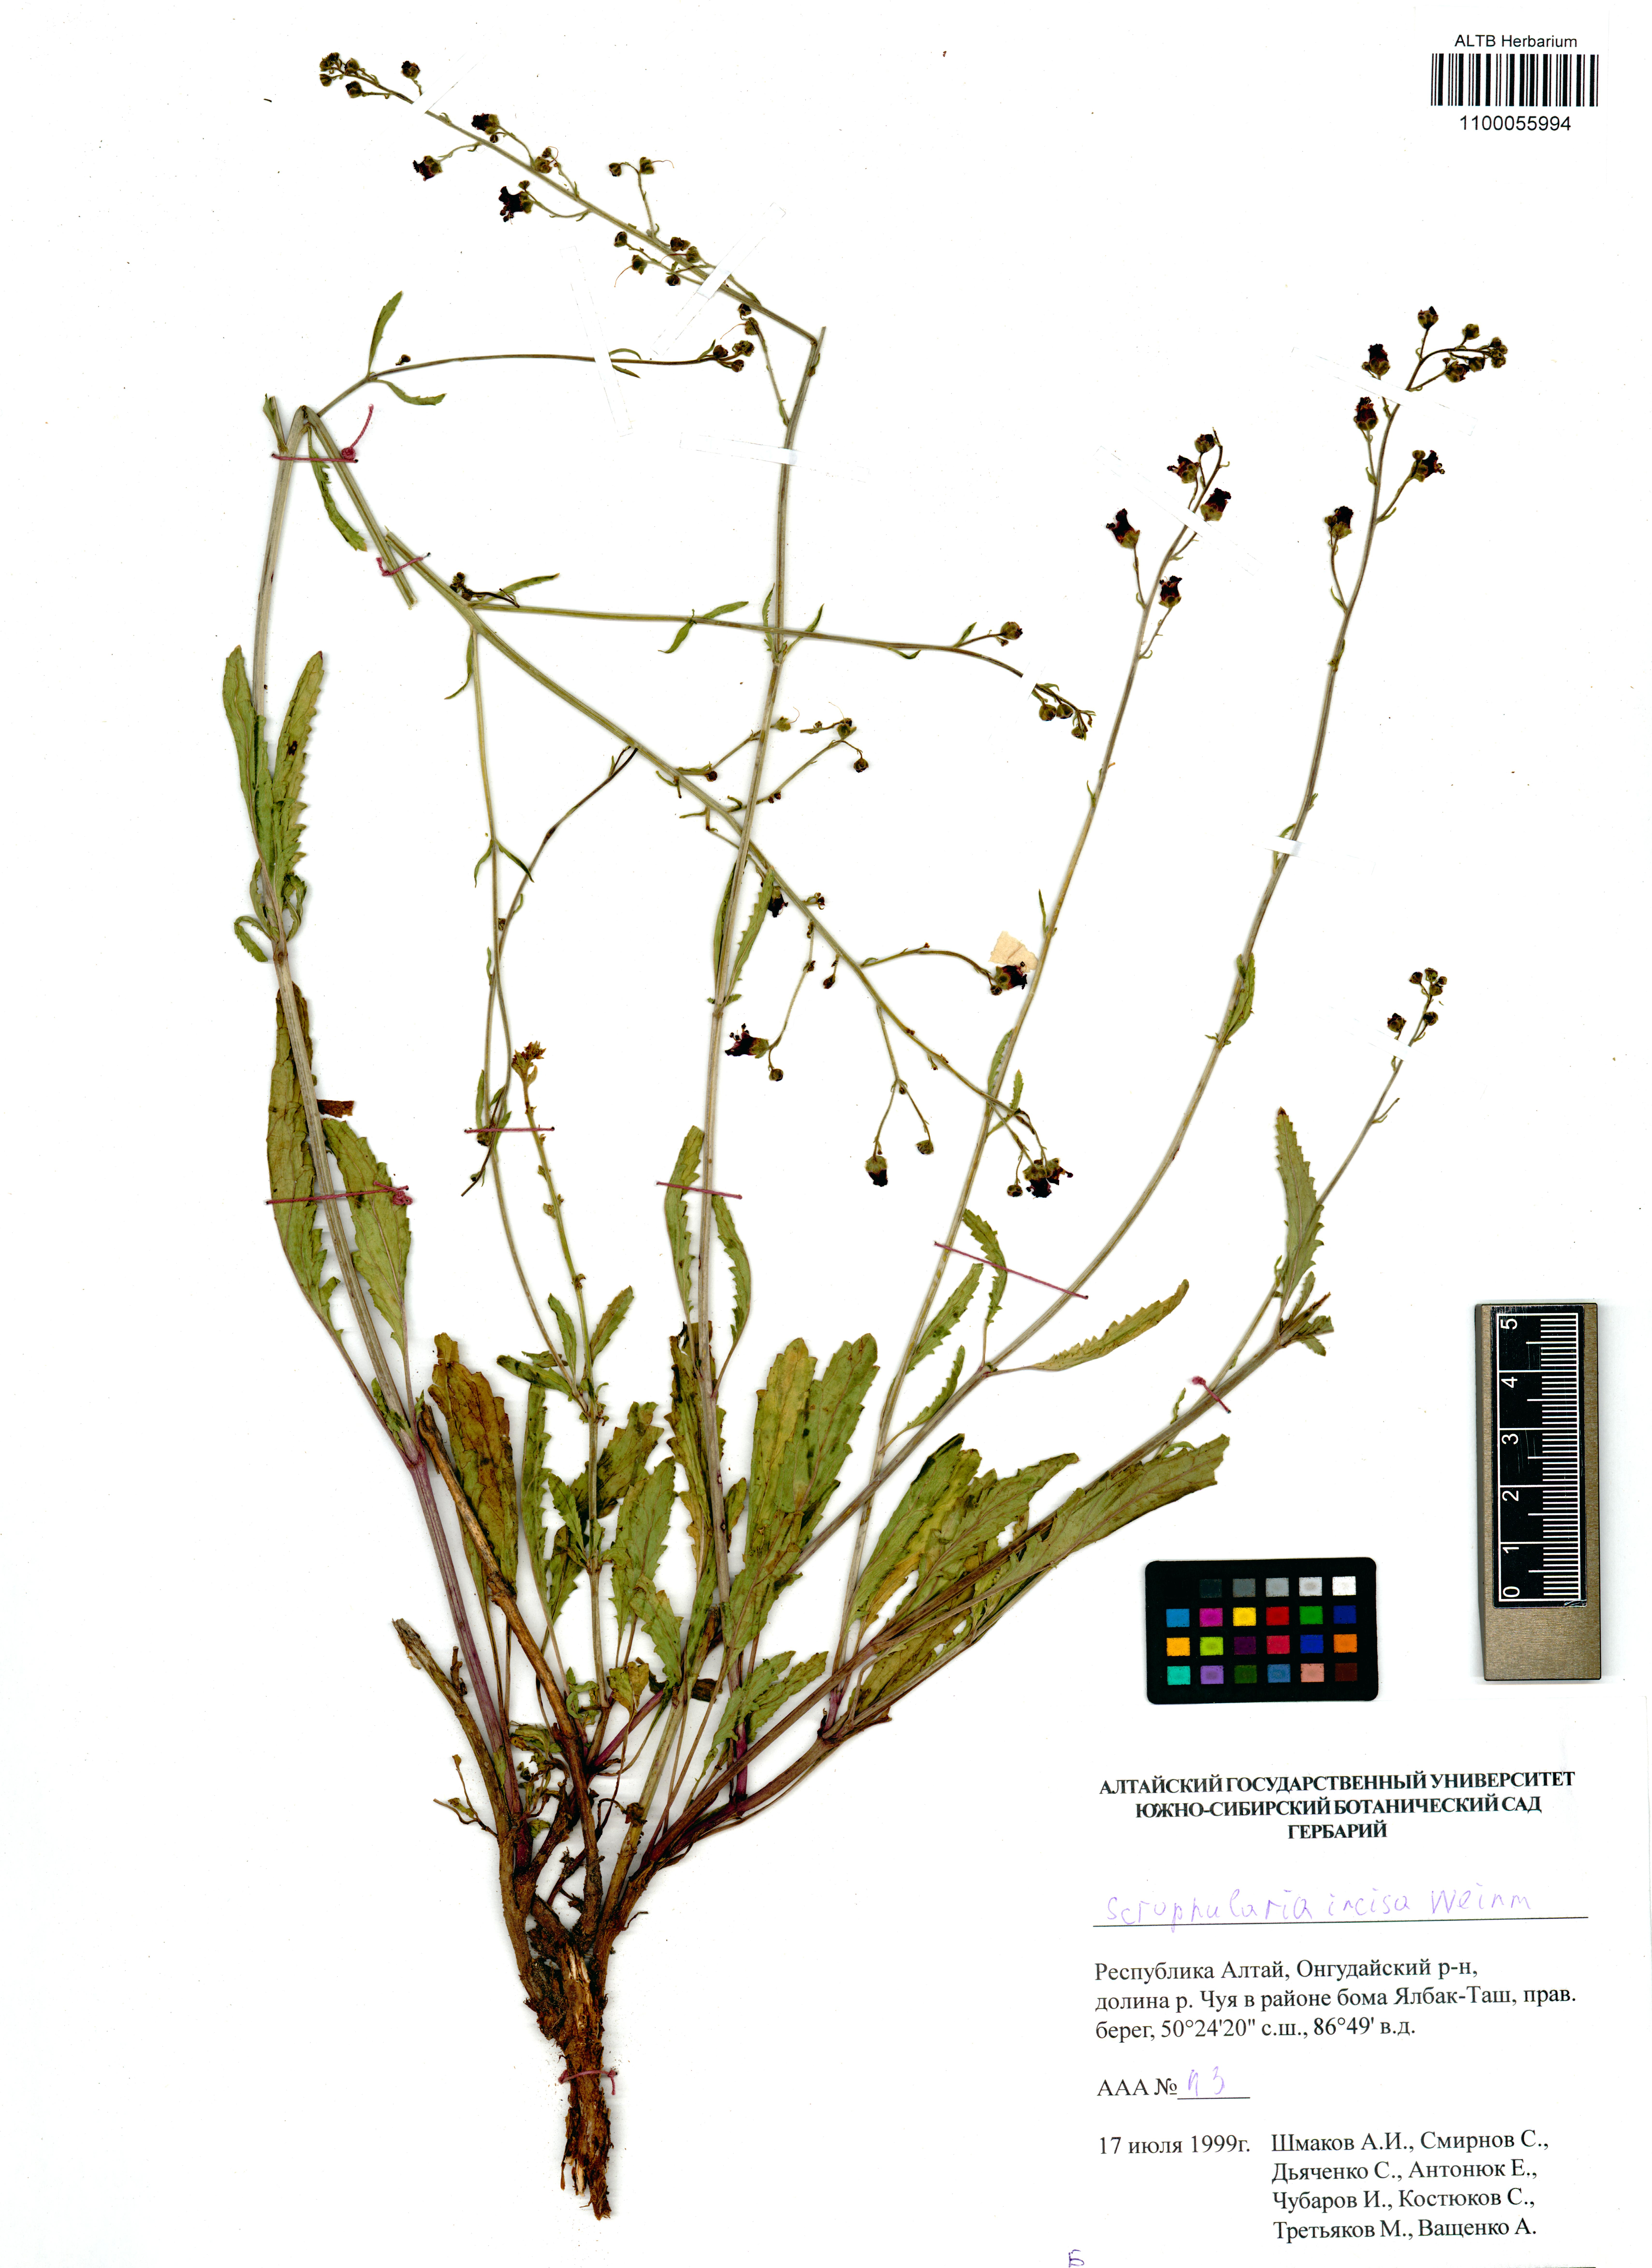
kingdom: Plantae
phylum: Tracheophyta
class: Magnoliopsida
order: Lamiales
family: Scrophulariaceae
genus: Scrophularia
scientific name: Scrophularia incisa
